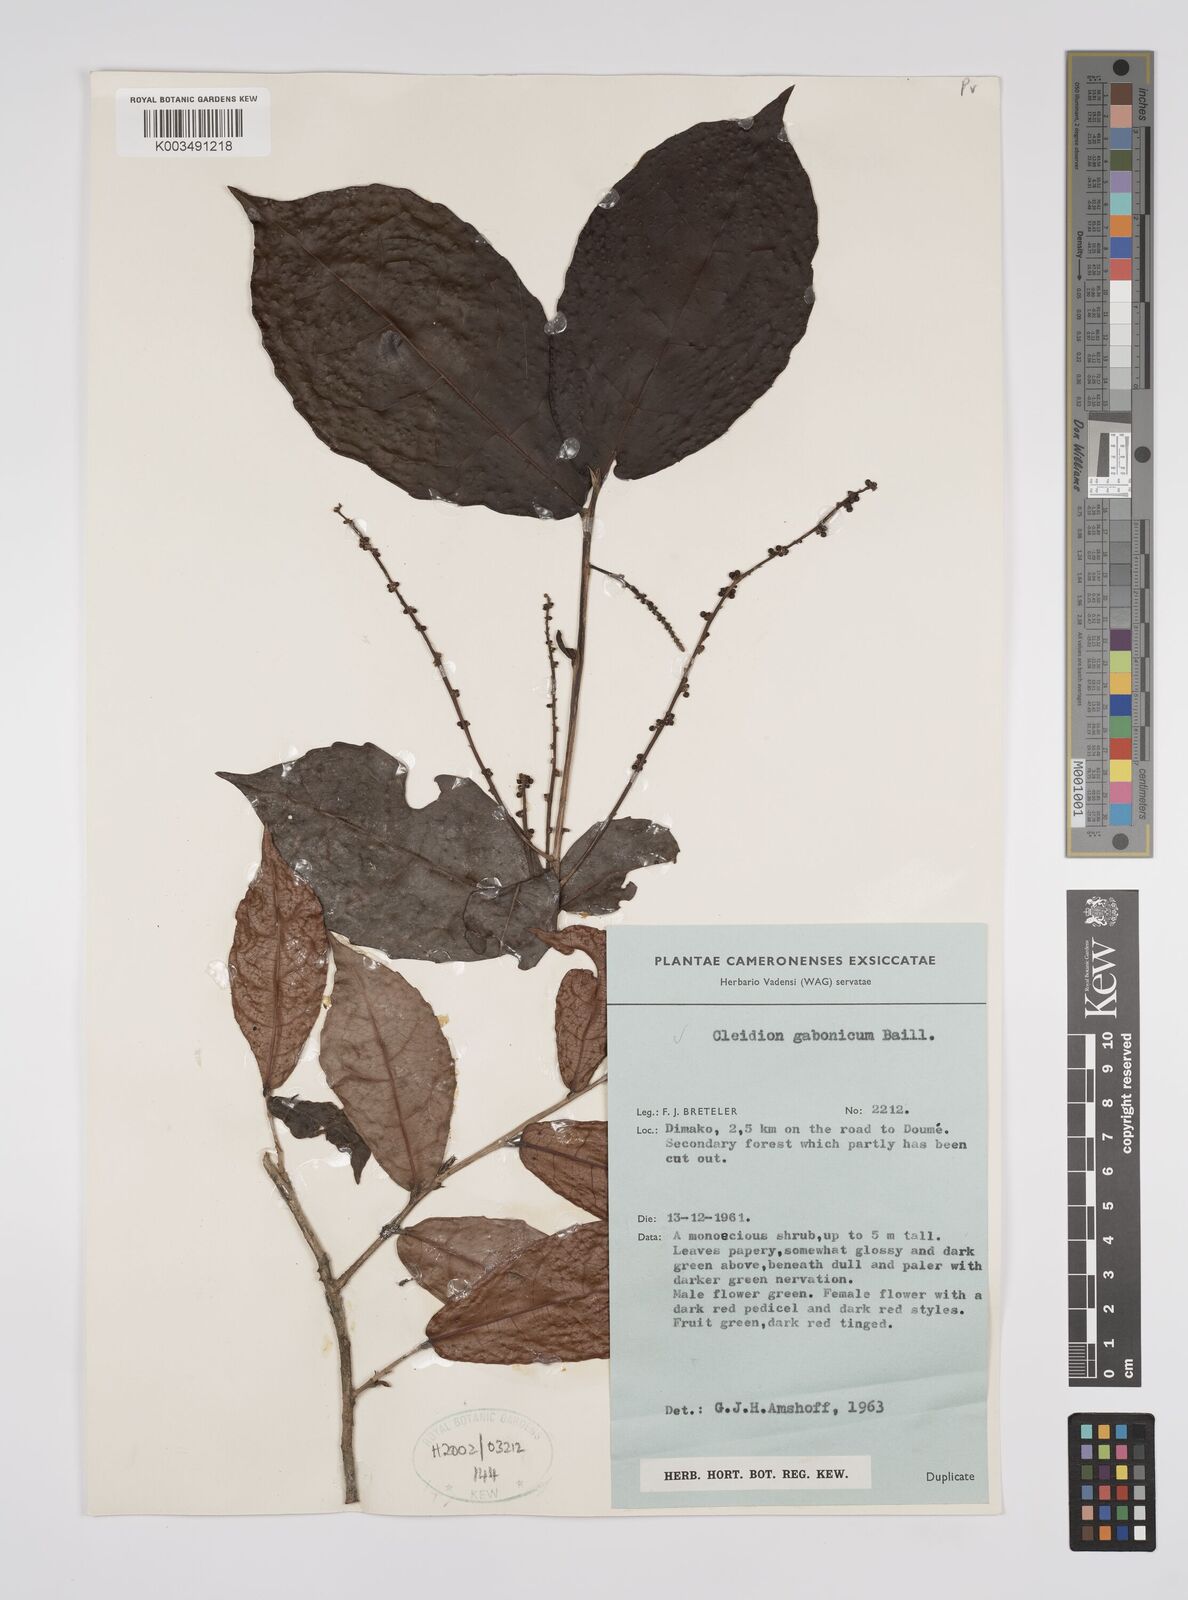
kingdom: Plantae
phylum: Tracheophyta
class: Magnoliopsida
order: Malpighiales
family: Euphorbiaceae
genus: Cleidion
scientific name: Cleidion gabonicum
